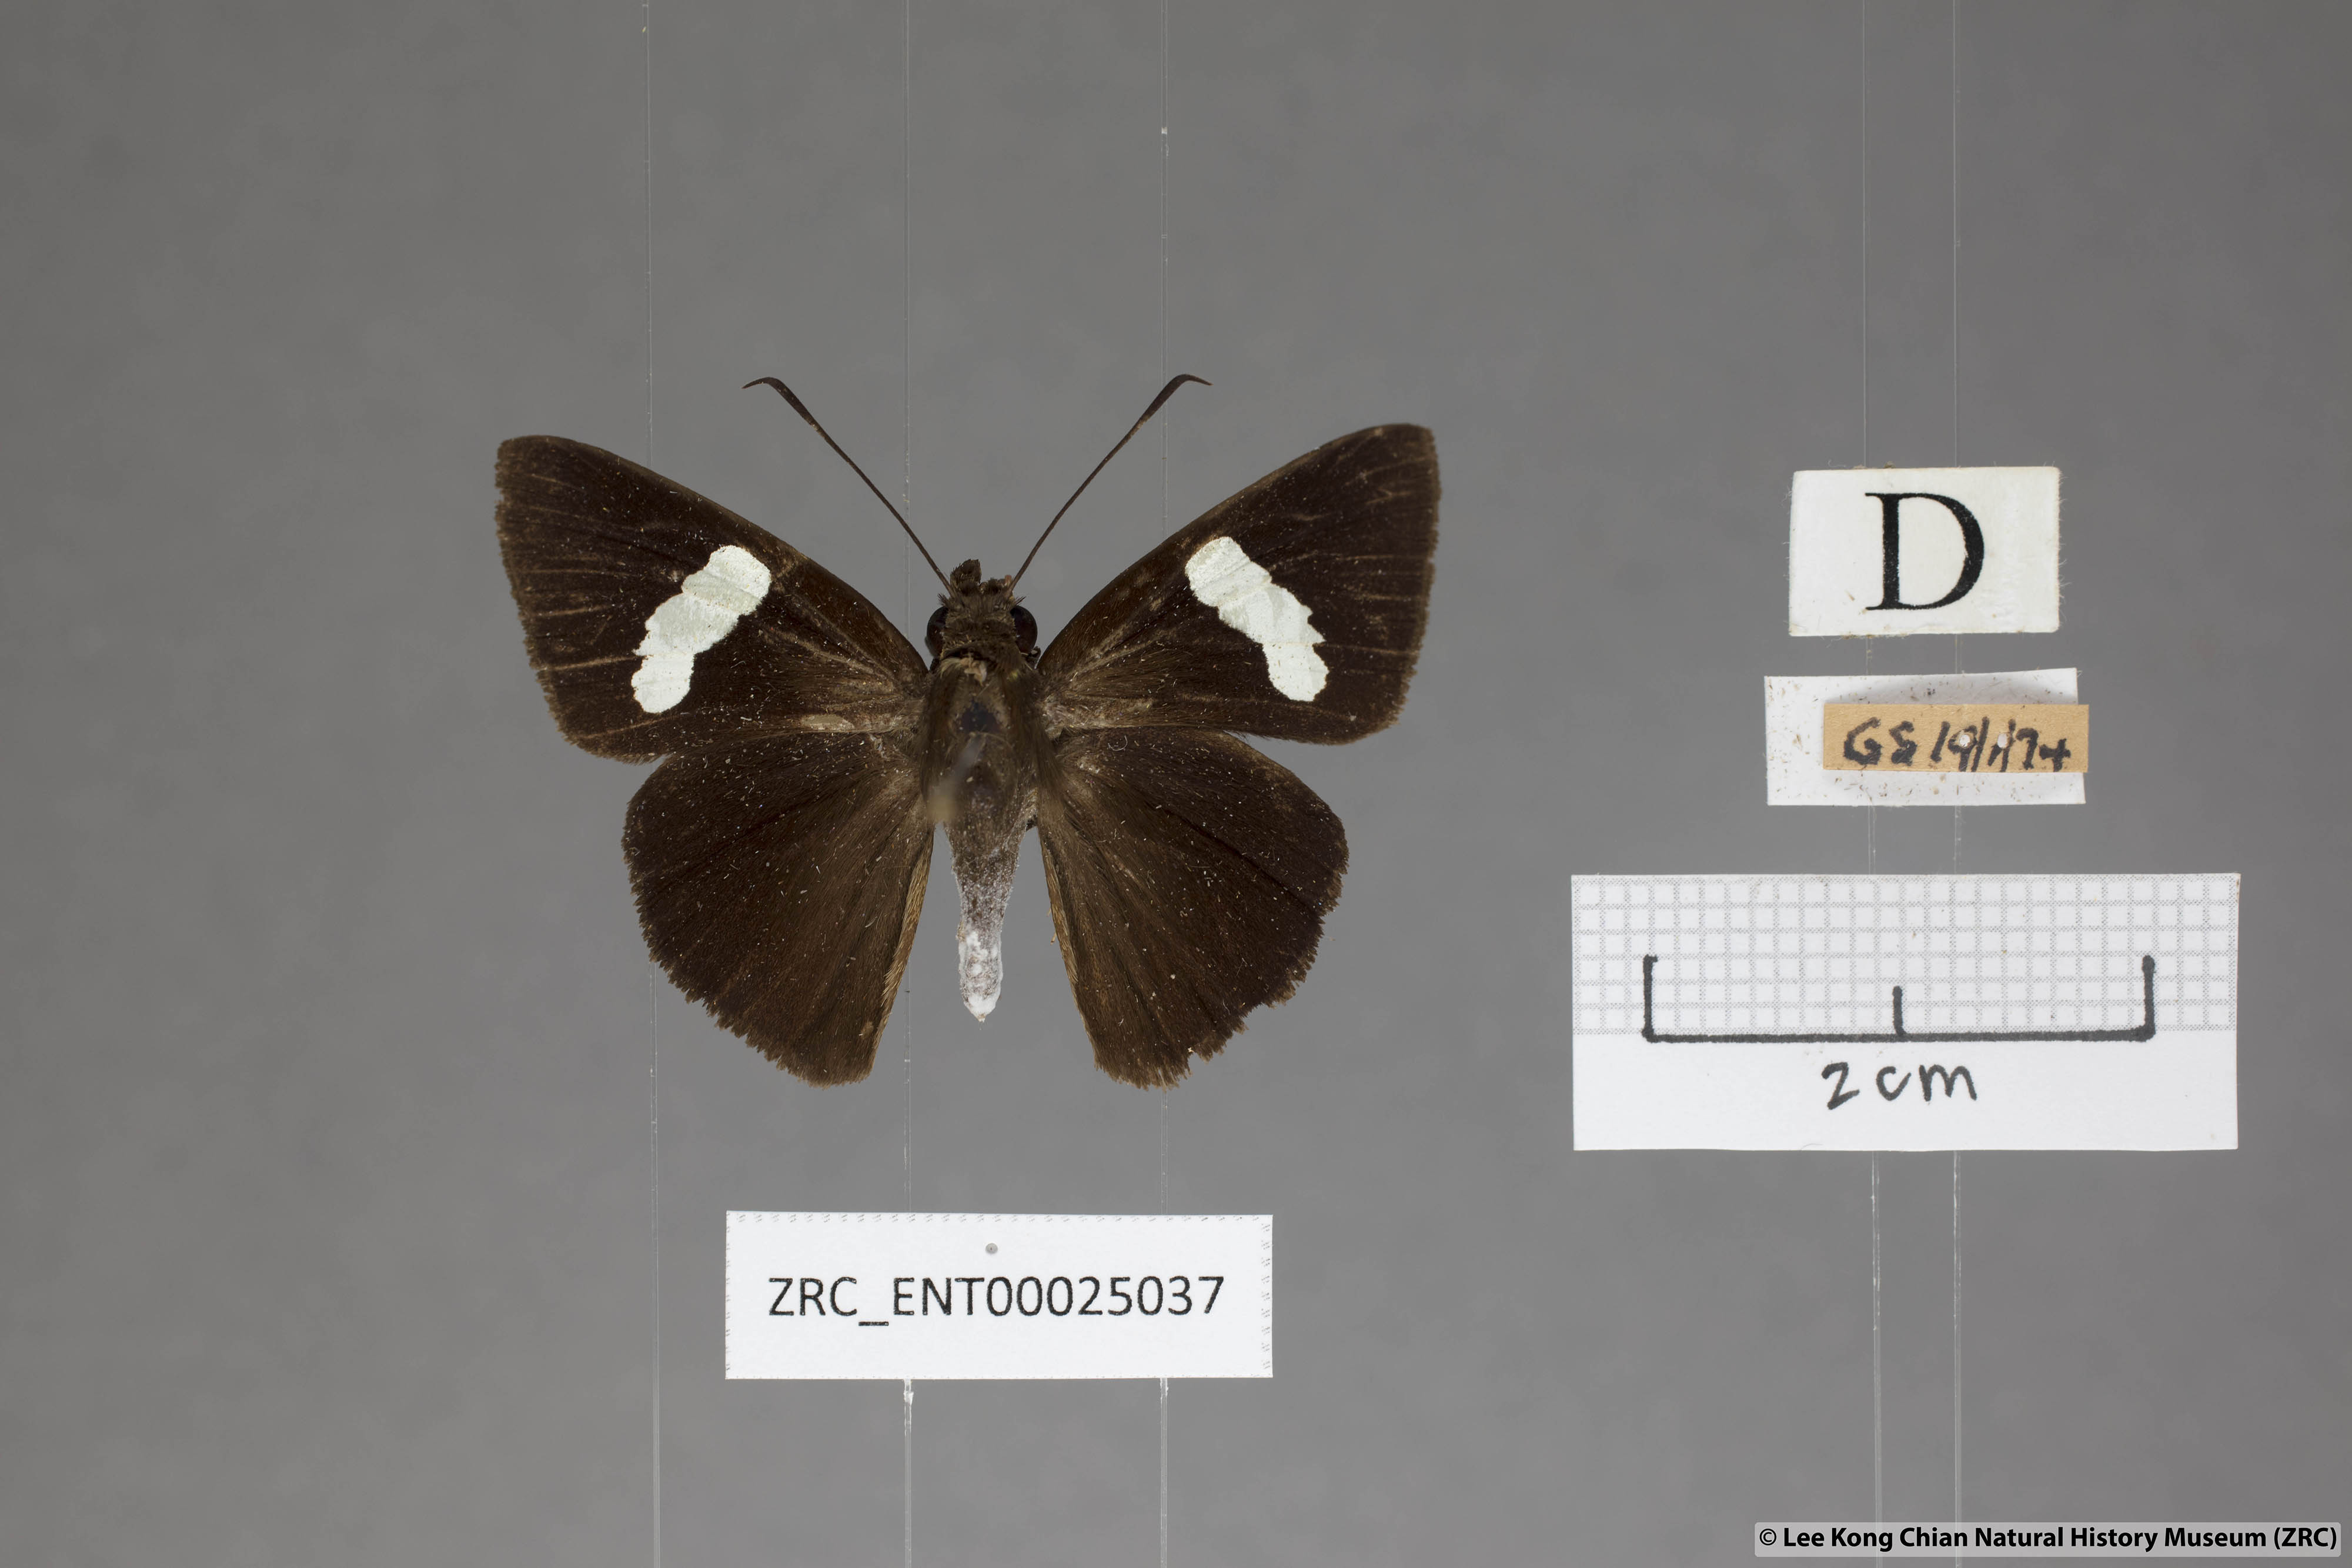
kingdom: Animalia
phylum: Arthropoda
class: Insecta
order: Lepidoptera
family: Hesperiidae
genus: Notocrypta
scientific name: Notocrypta paralysos
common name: Common banded demon
